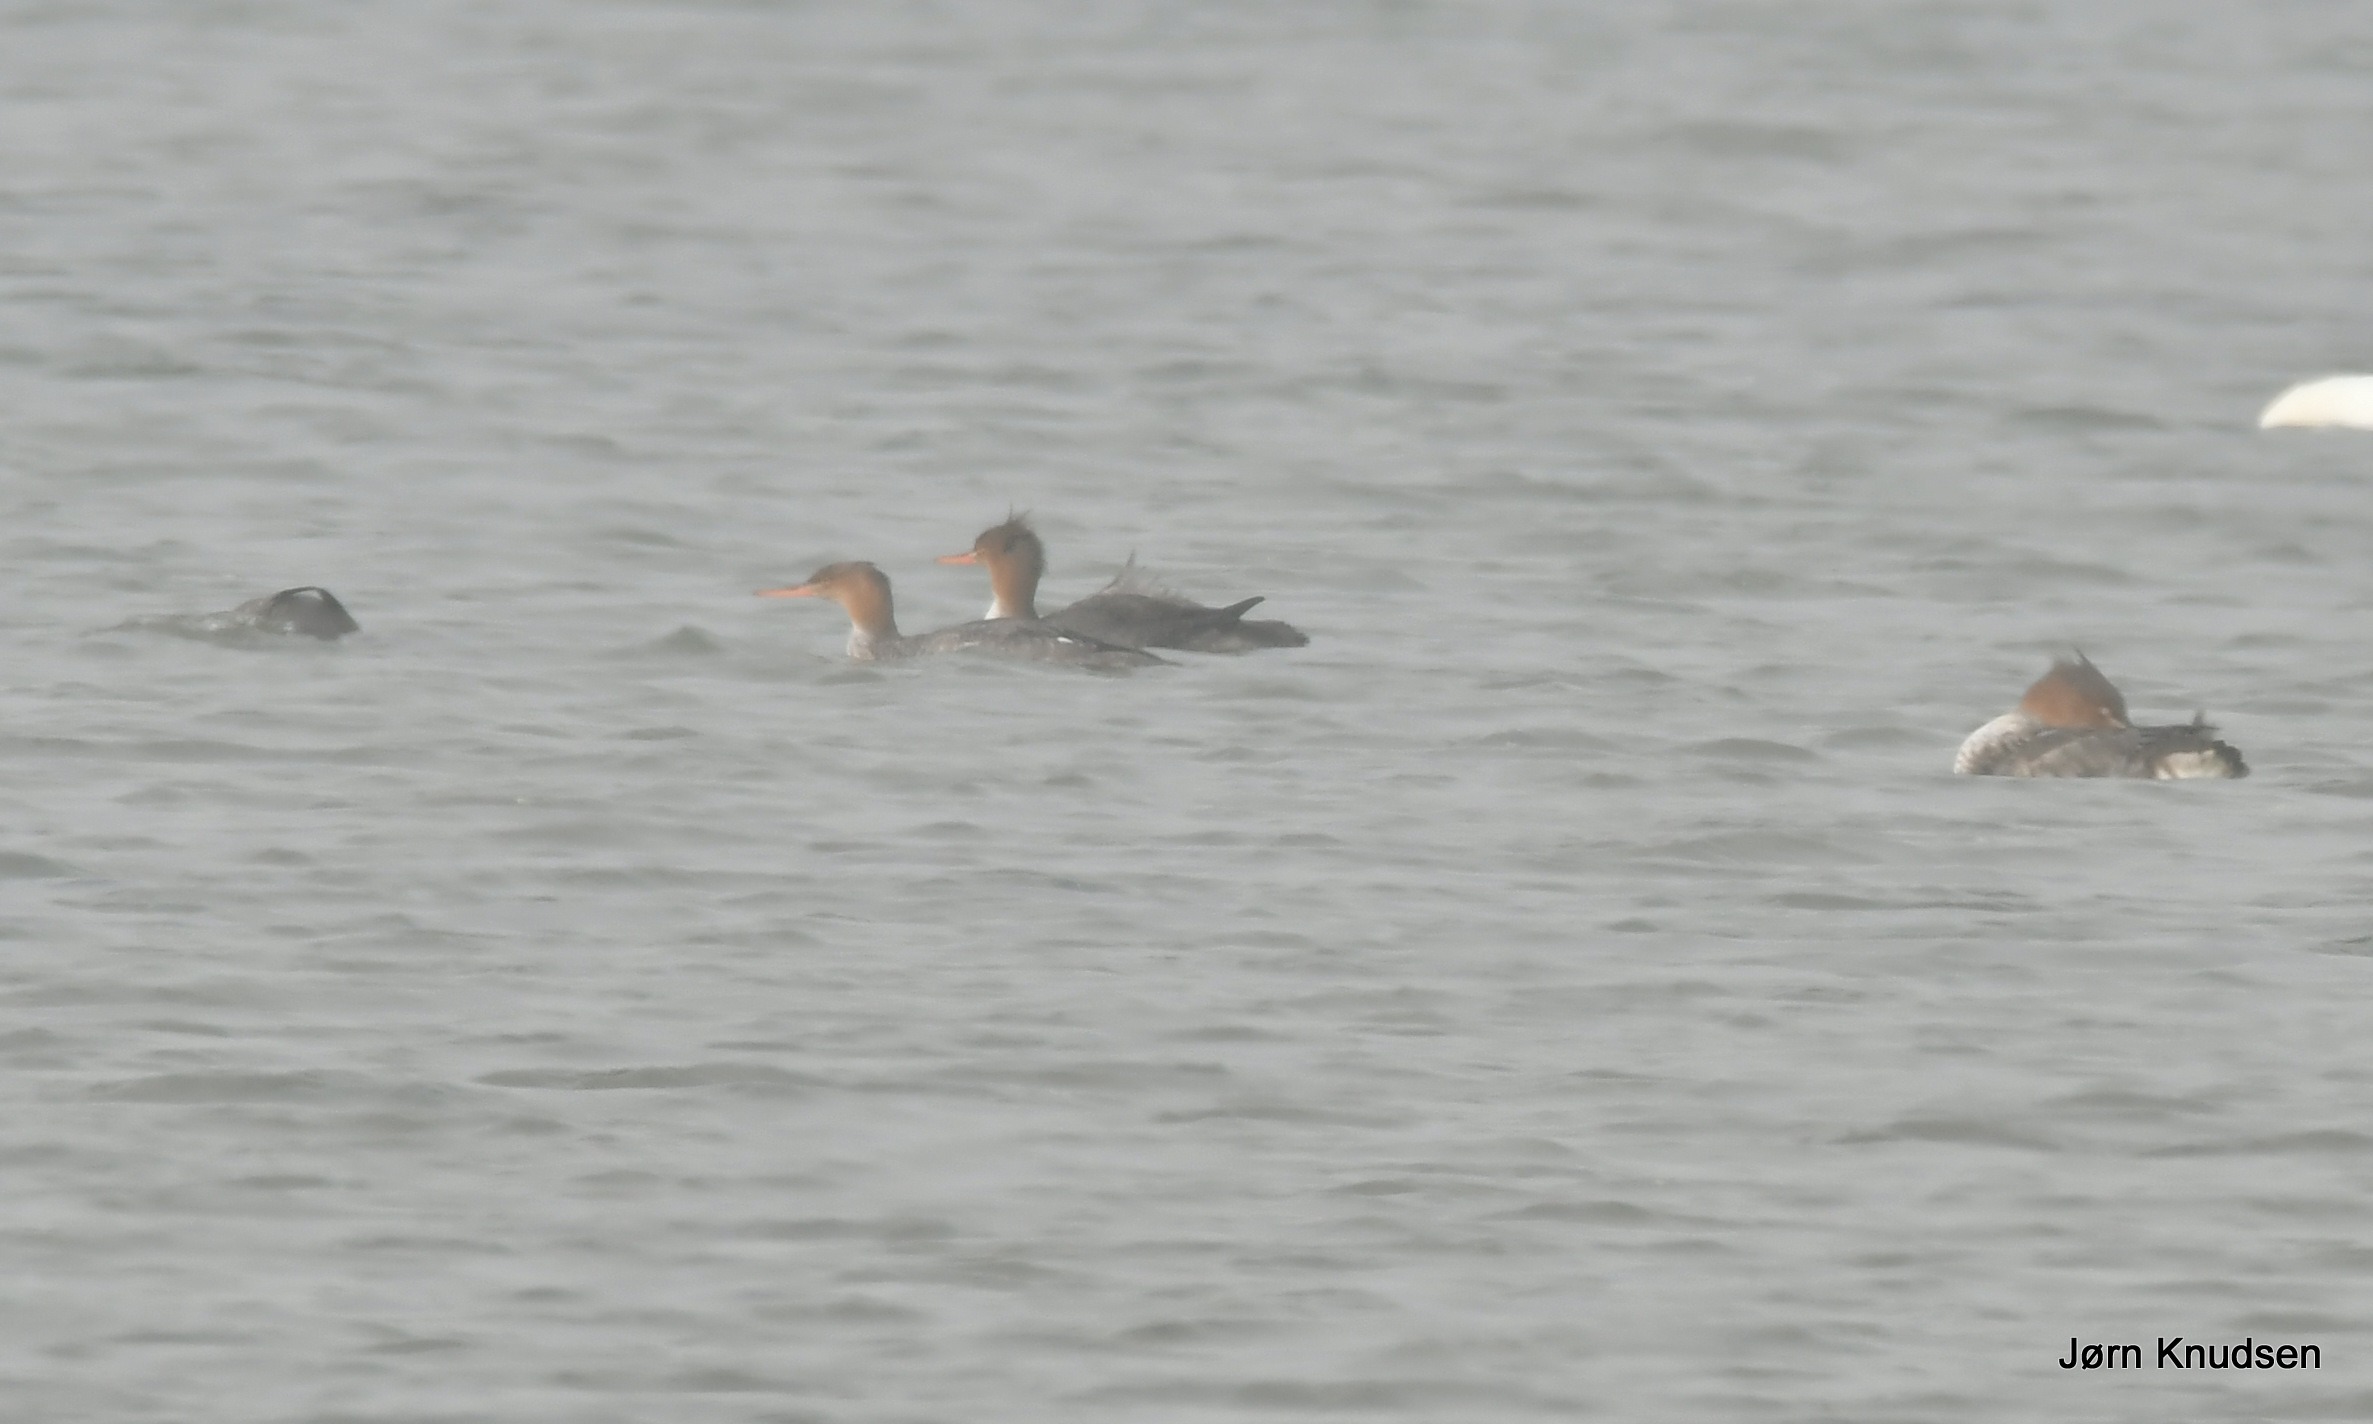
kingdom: Animalia
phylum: Chordata
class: Aves
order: Anseriformes
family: Anatidae
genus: Cygnus
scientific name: Cygnus olor
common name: Knopsvane
